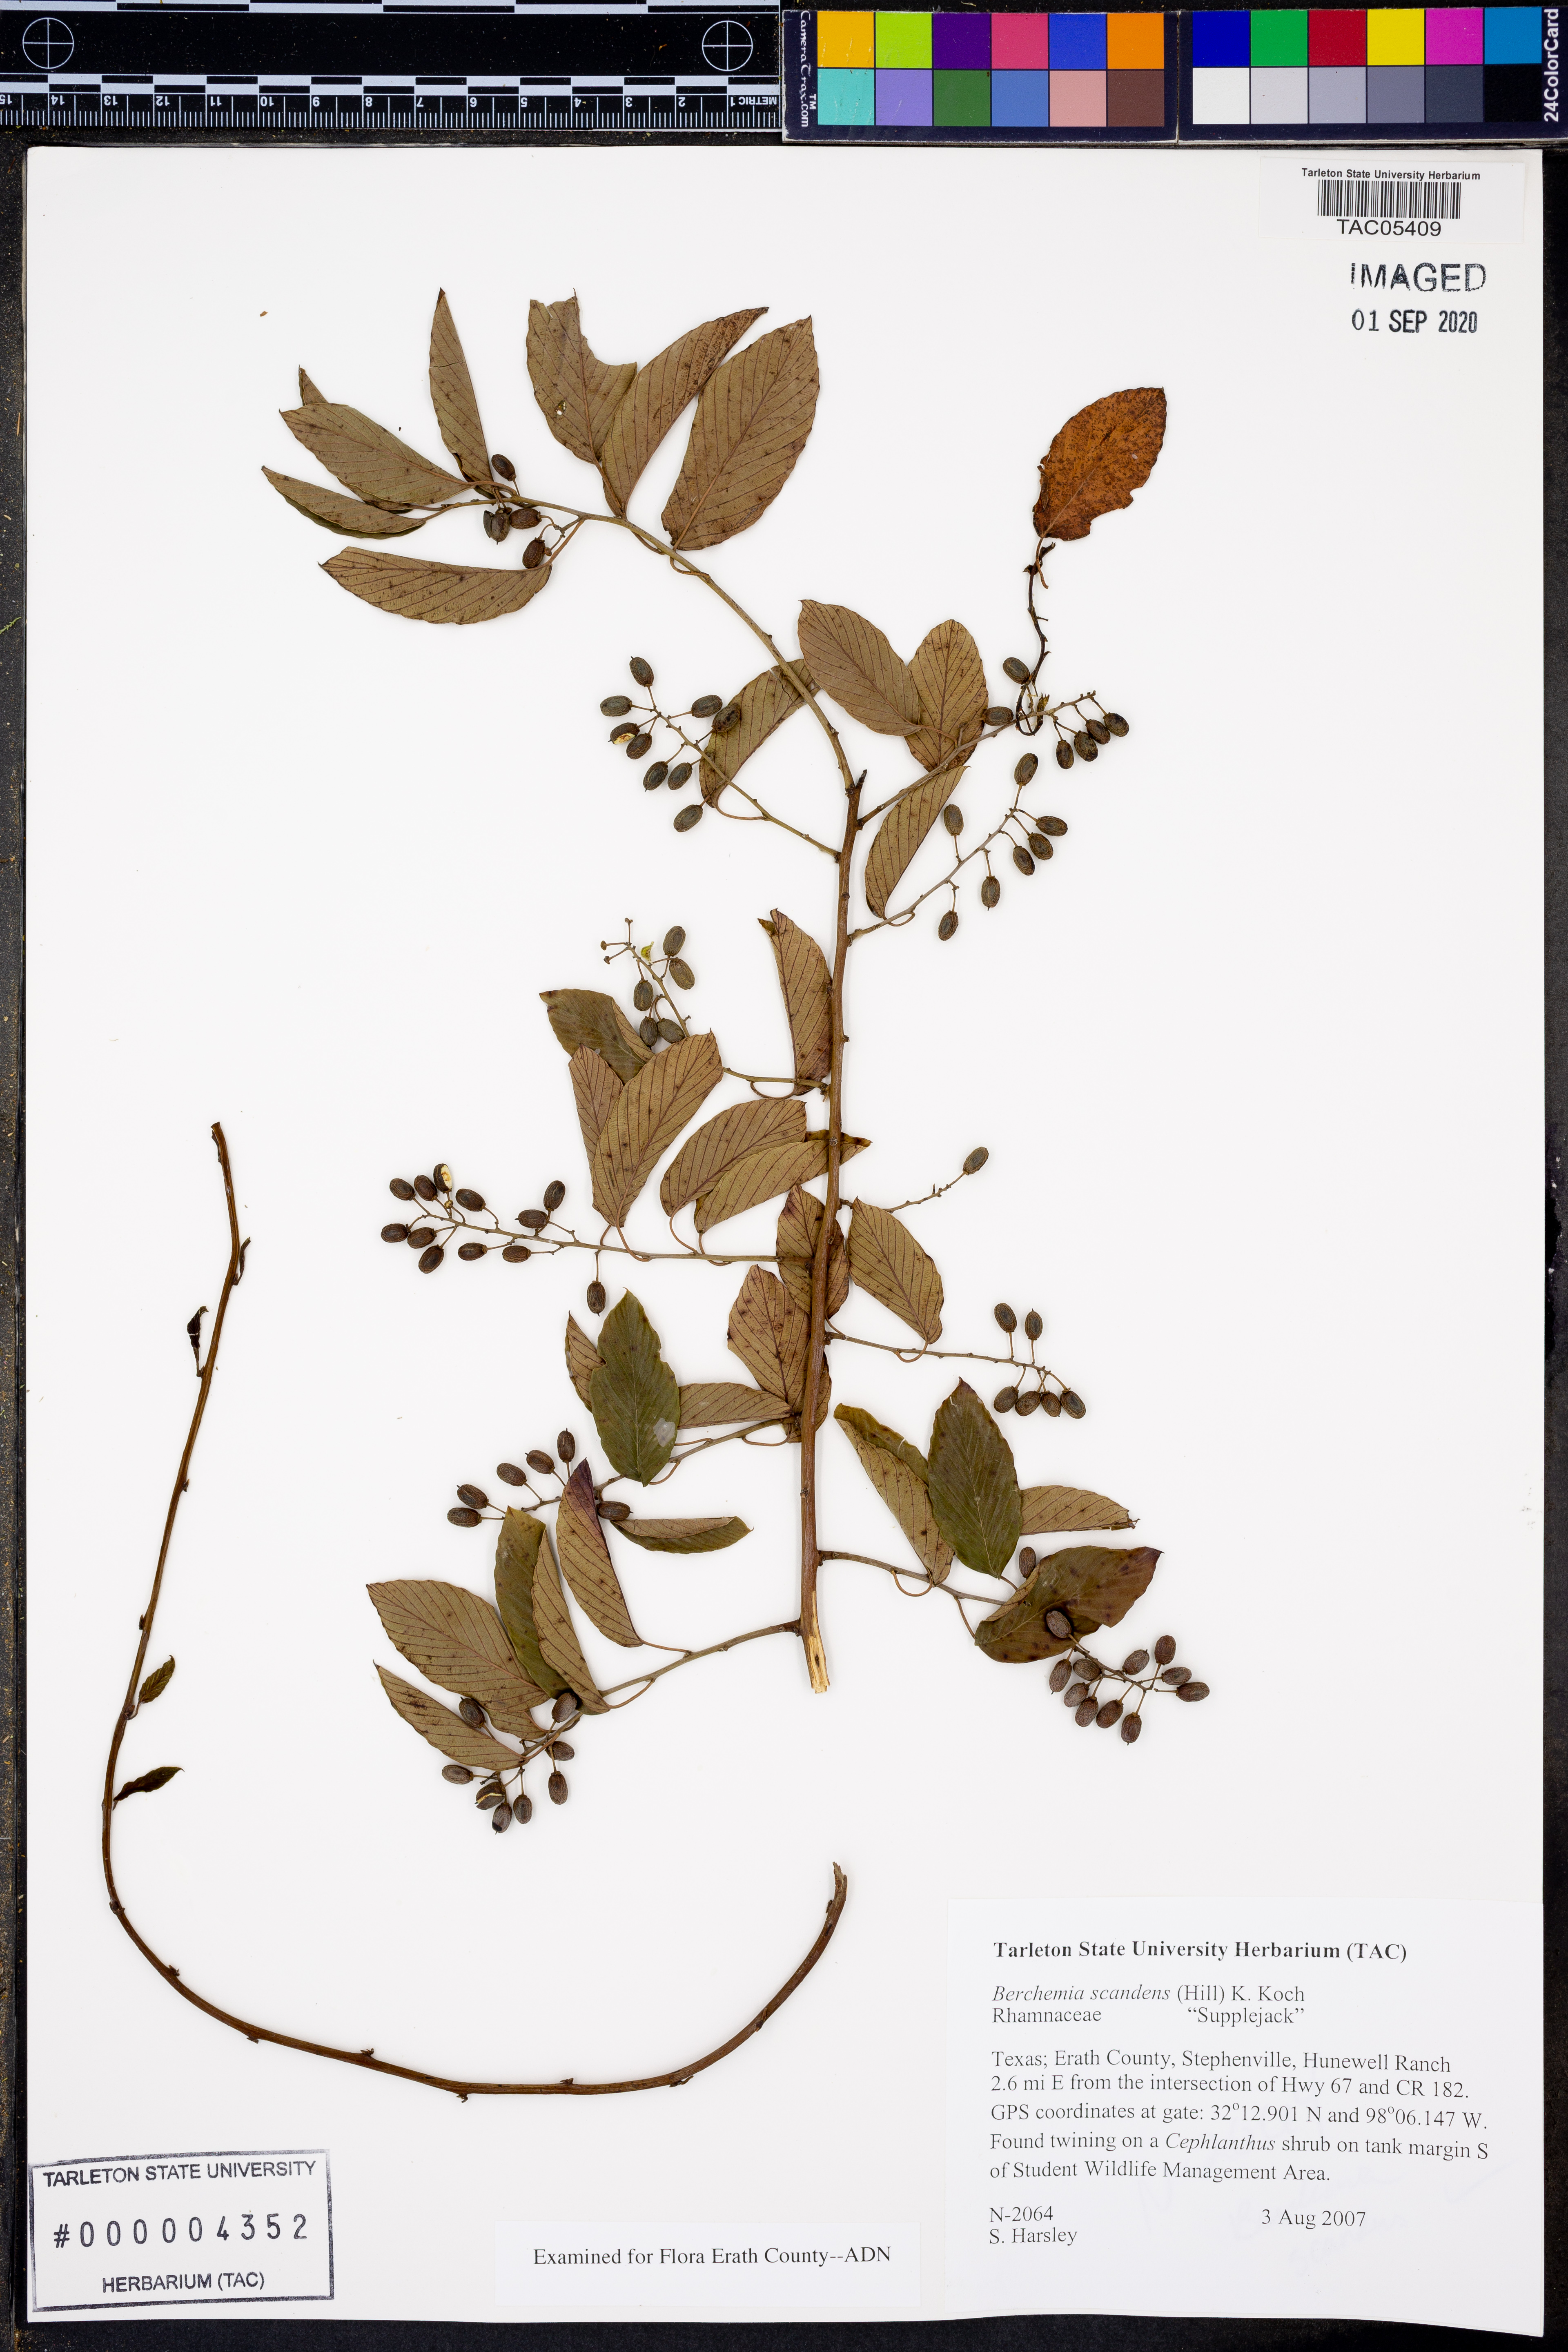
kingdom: Plantae
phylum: Tracheophyta
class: Magnoliopsida
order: Rosales
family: Rhamnaceae
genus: Berchemia
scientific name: Berchemia scandens
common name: Supplejack
